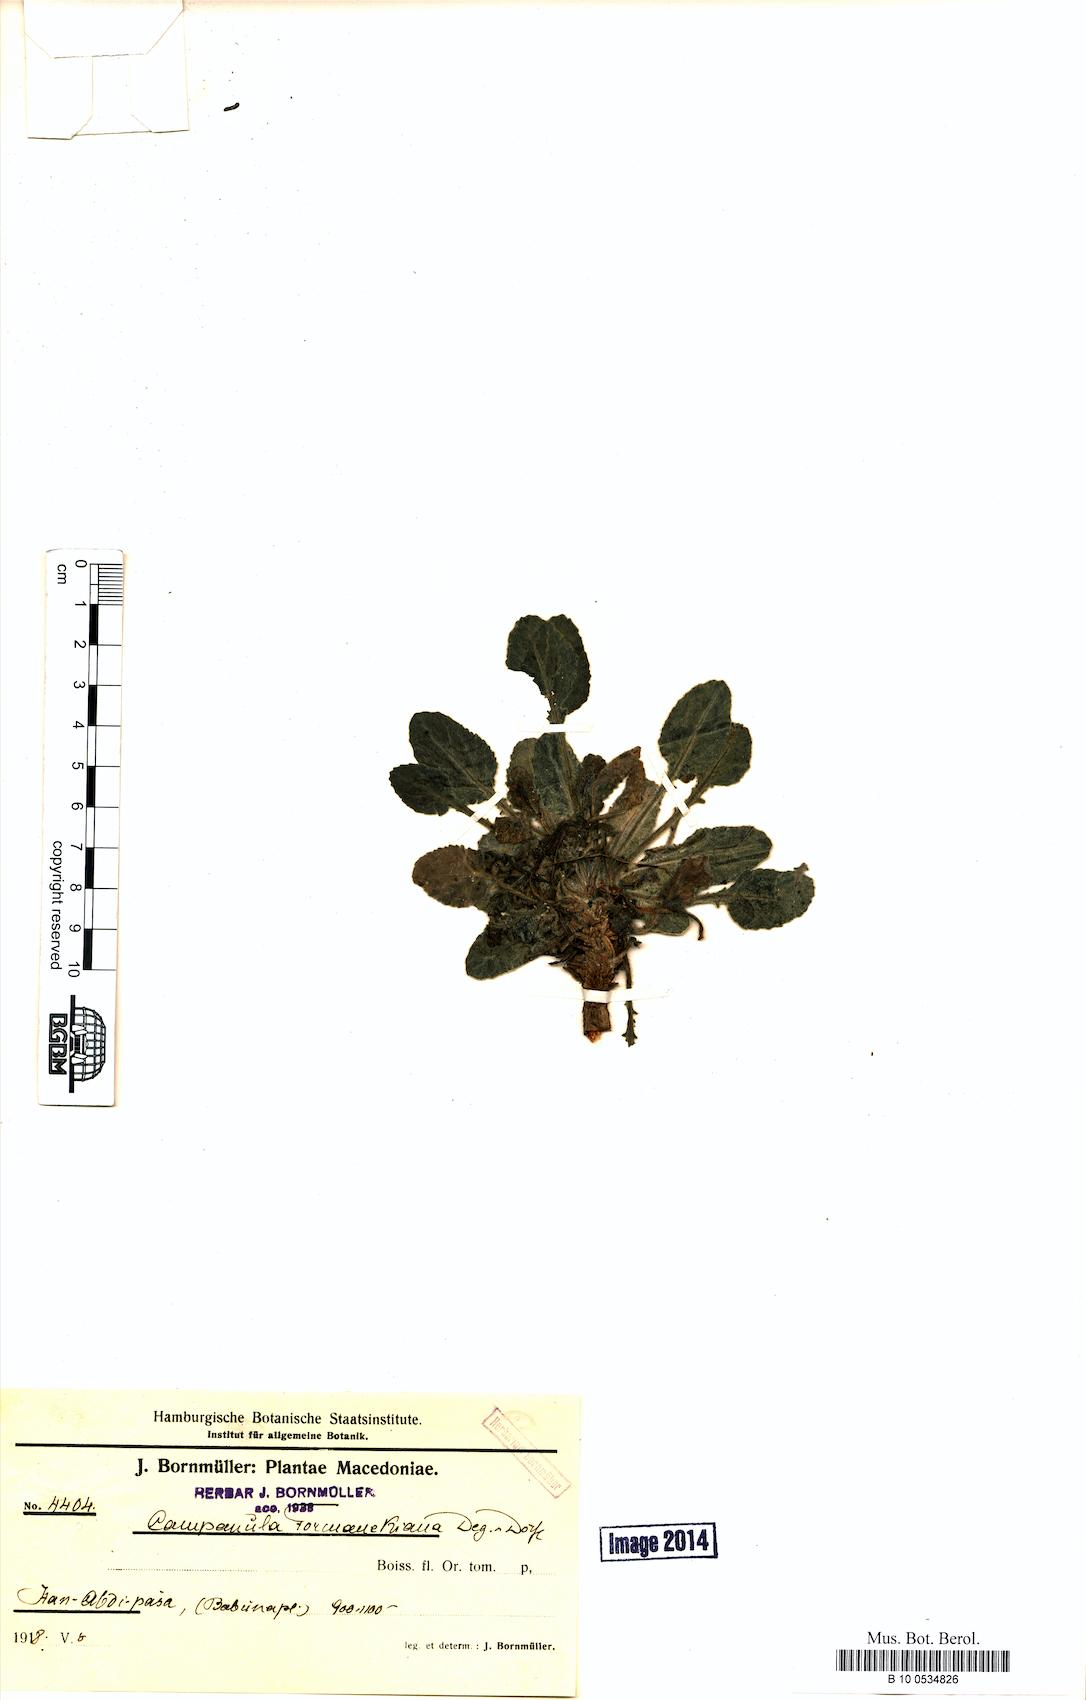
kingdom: Plantae
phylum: Tracheophyta
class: Magnoliopsida
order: Asterales
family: Campanulaceae
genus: Campanula
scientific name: Campanula formanekiana
